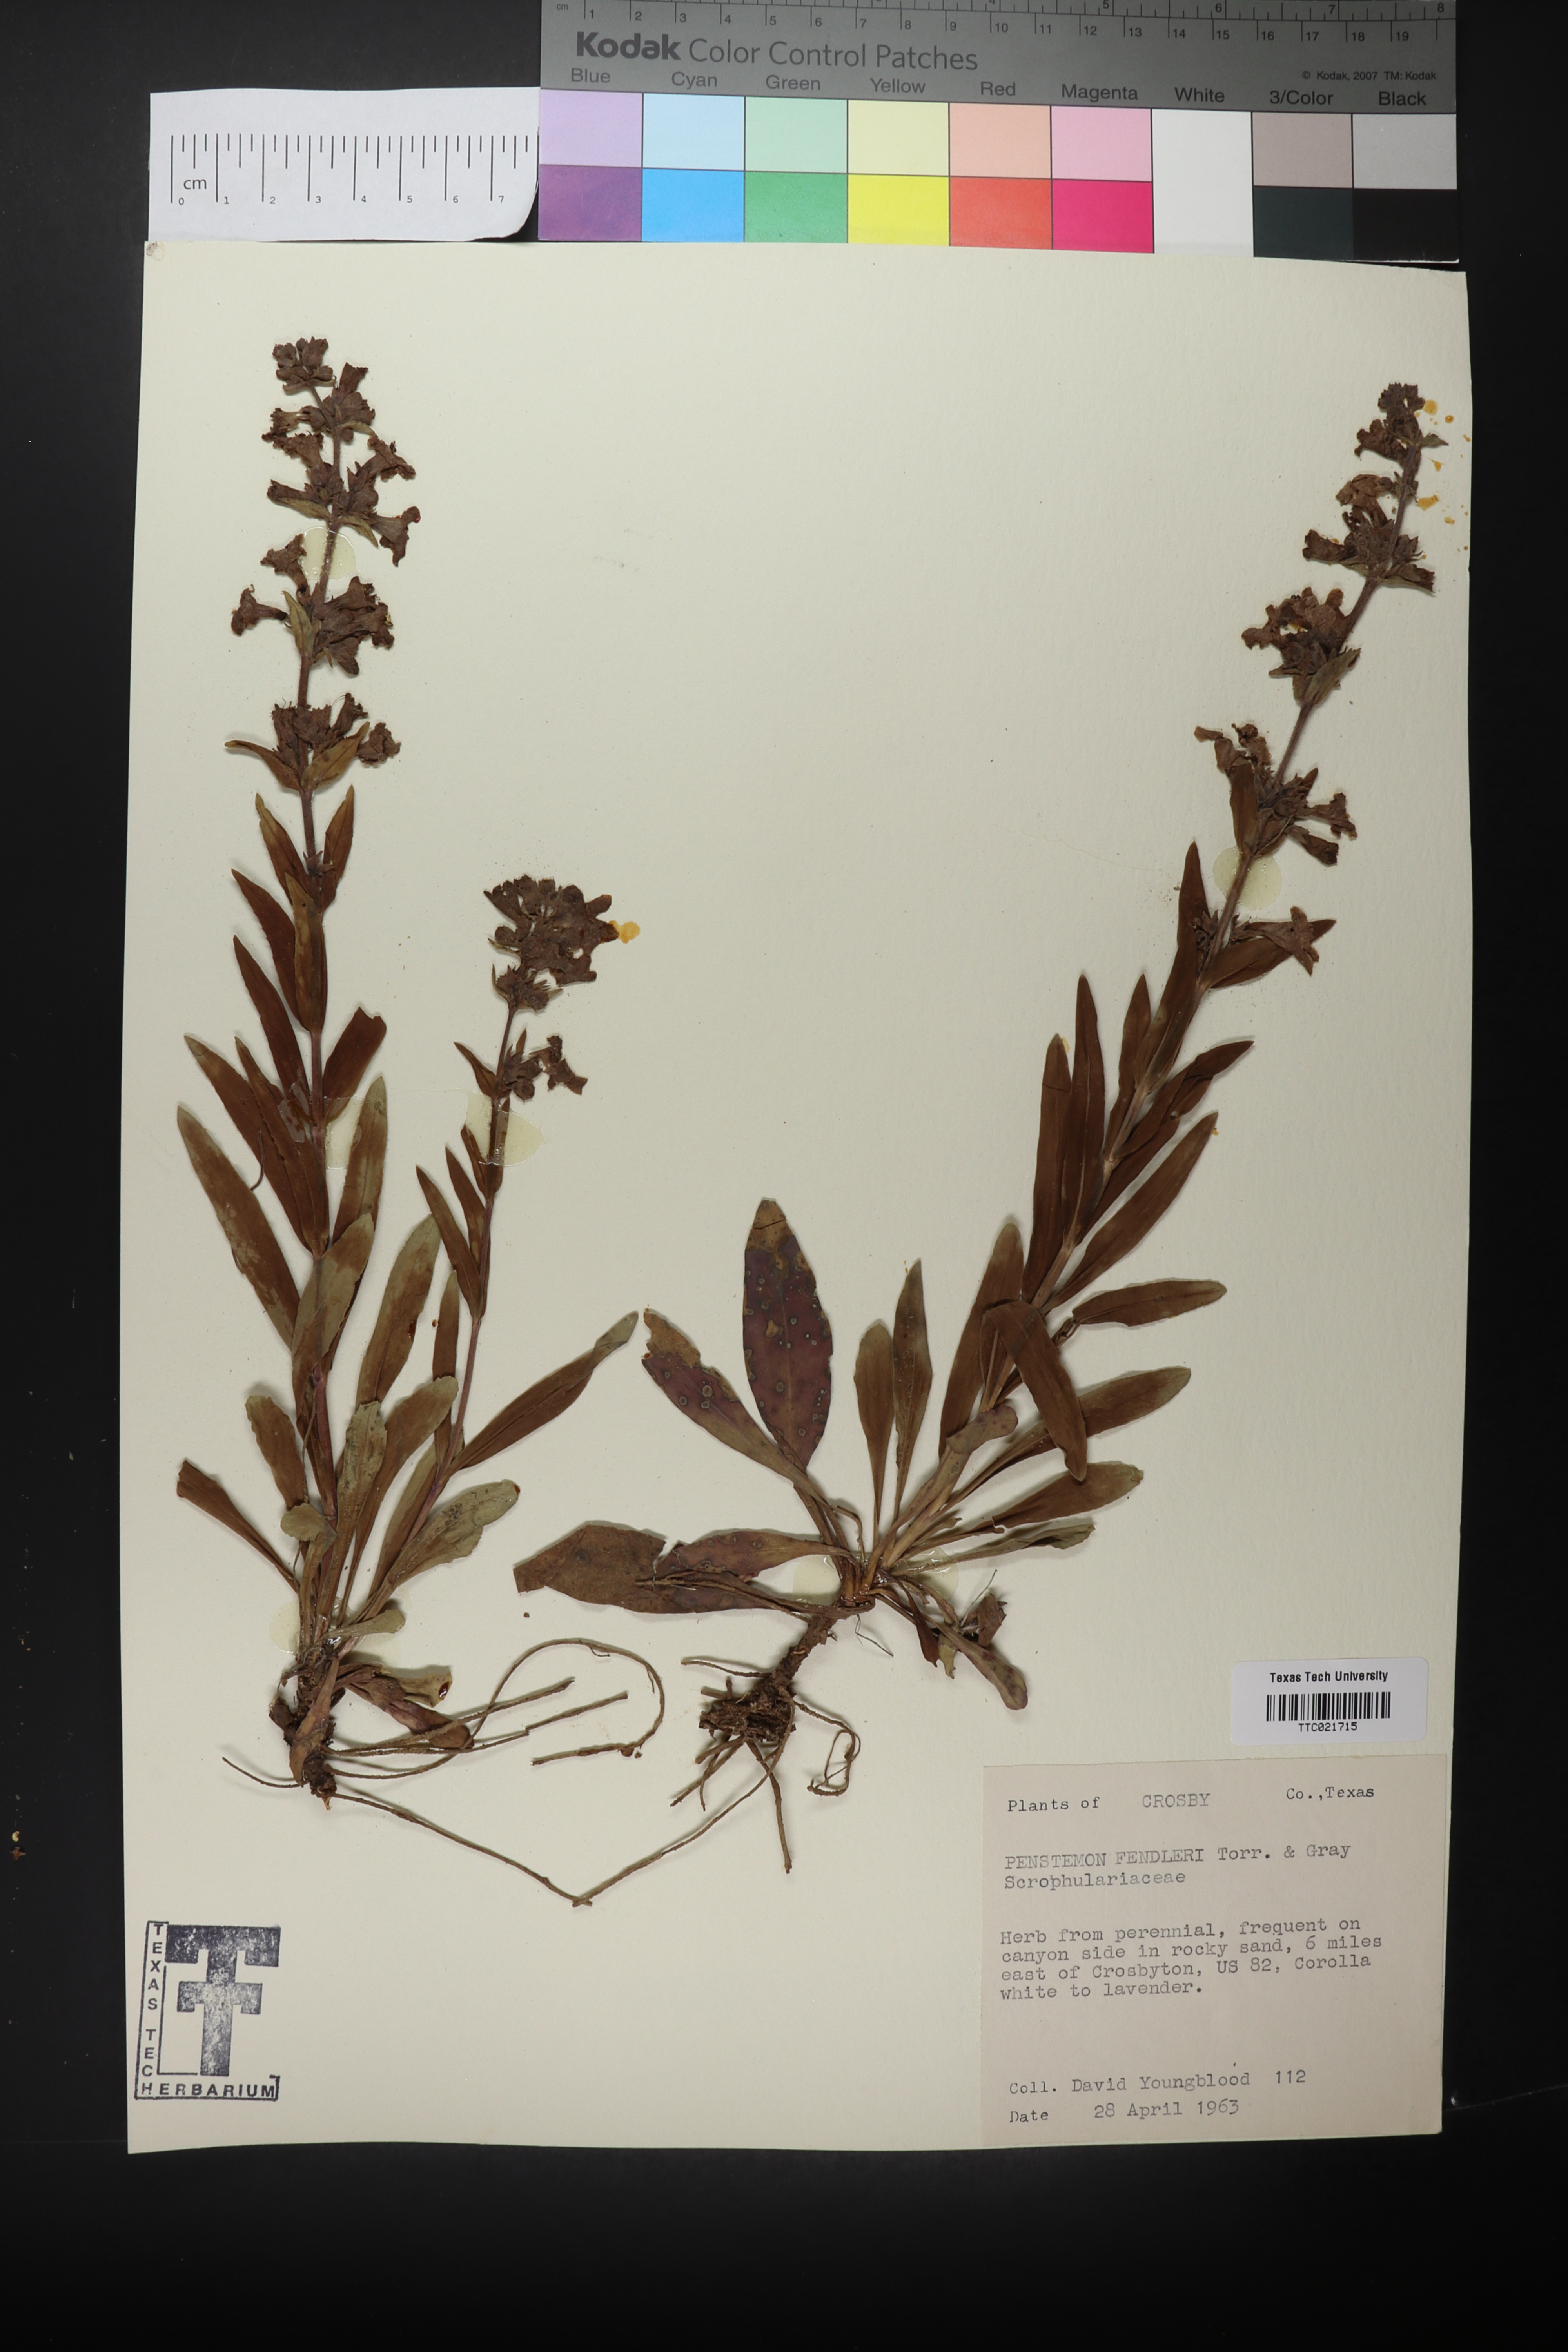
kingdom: Plantae
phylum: Tracheophyta
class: Magnoliopsida
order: Lamiales
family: Plantaginaceae
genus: Penstemon
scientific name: Penstemon fendleri
